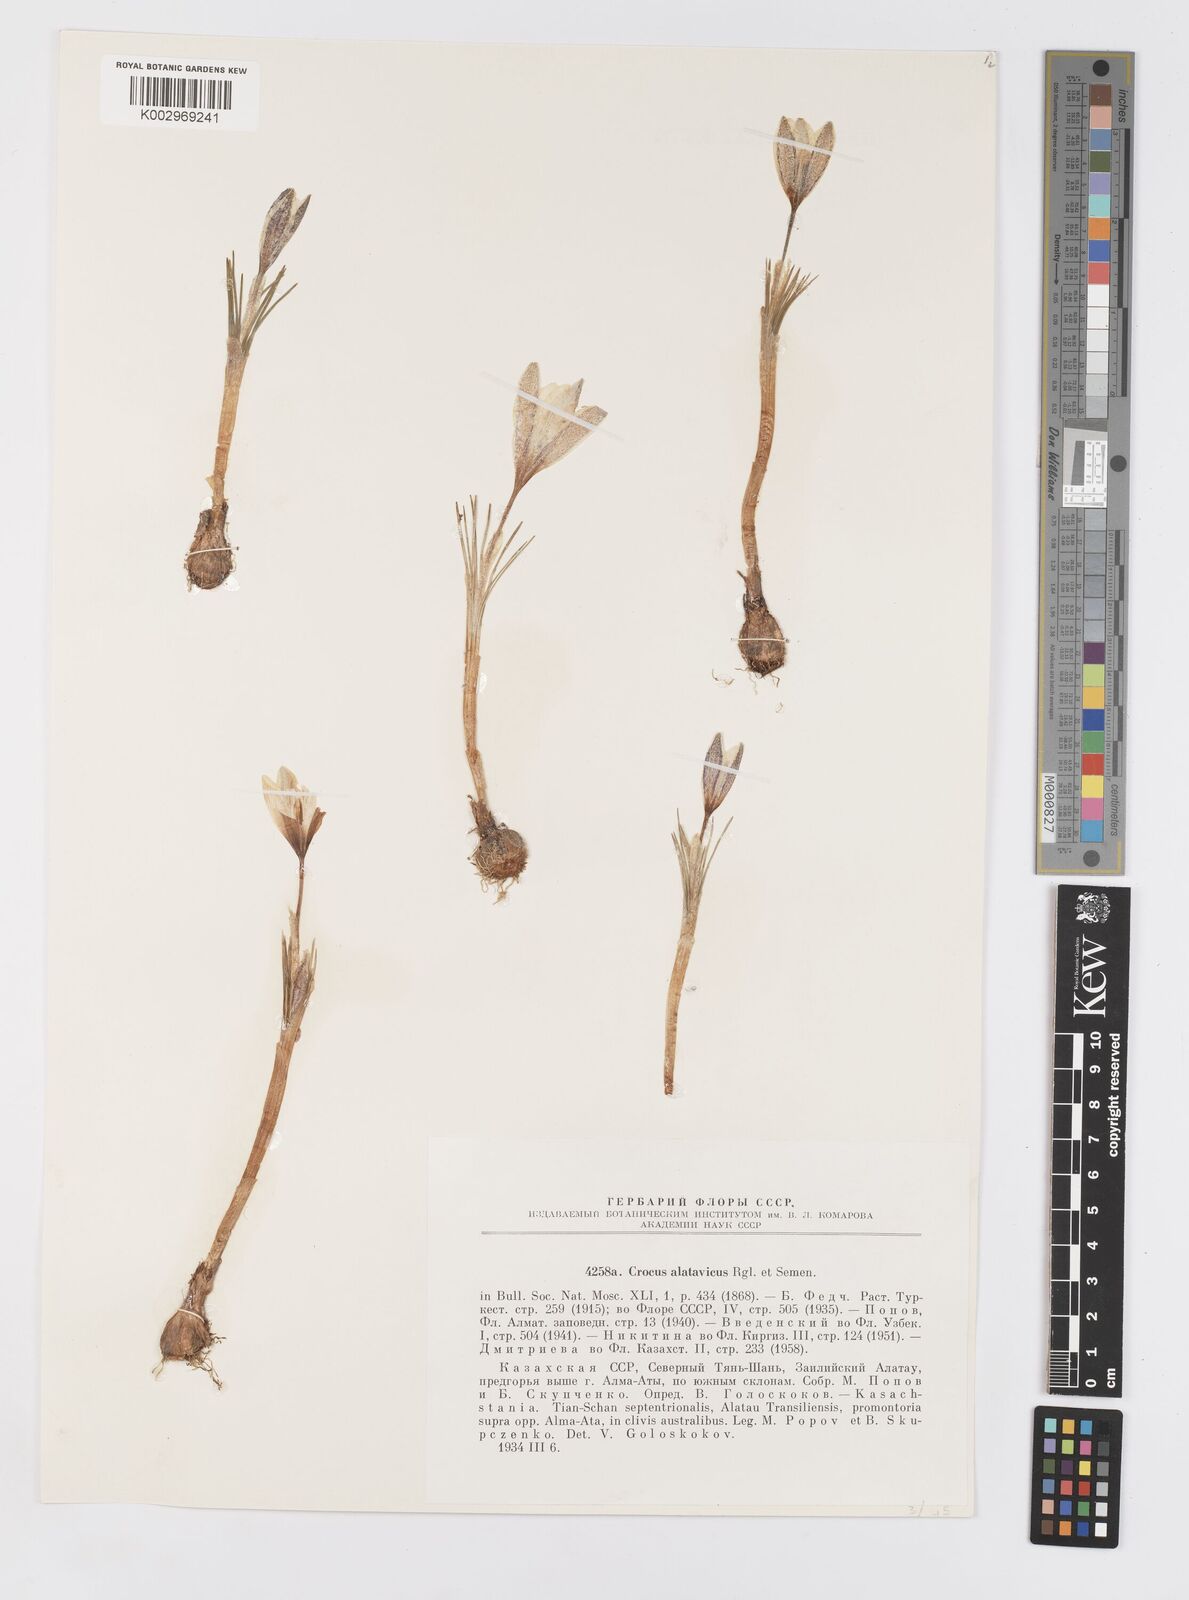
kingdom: Plantae
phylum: Tracheophyta
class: Liliopsida
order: Asparagales
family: Iridaceae
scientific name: Iridaceae
